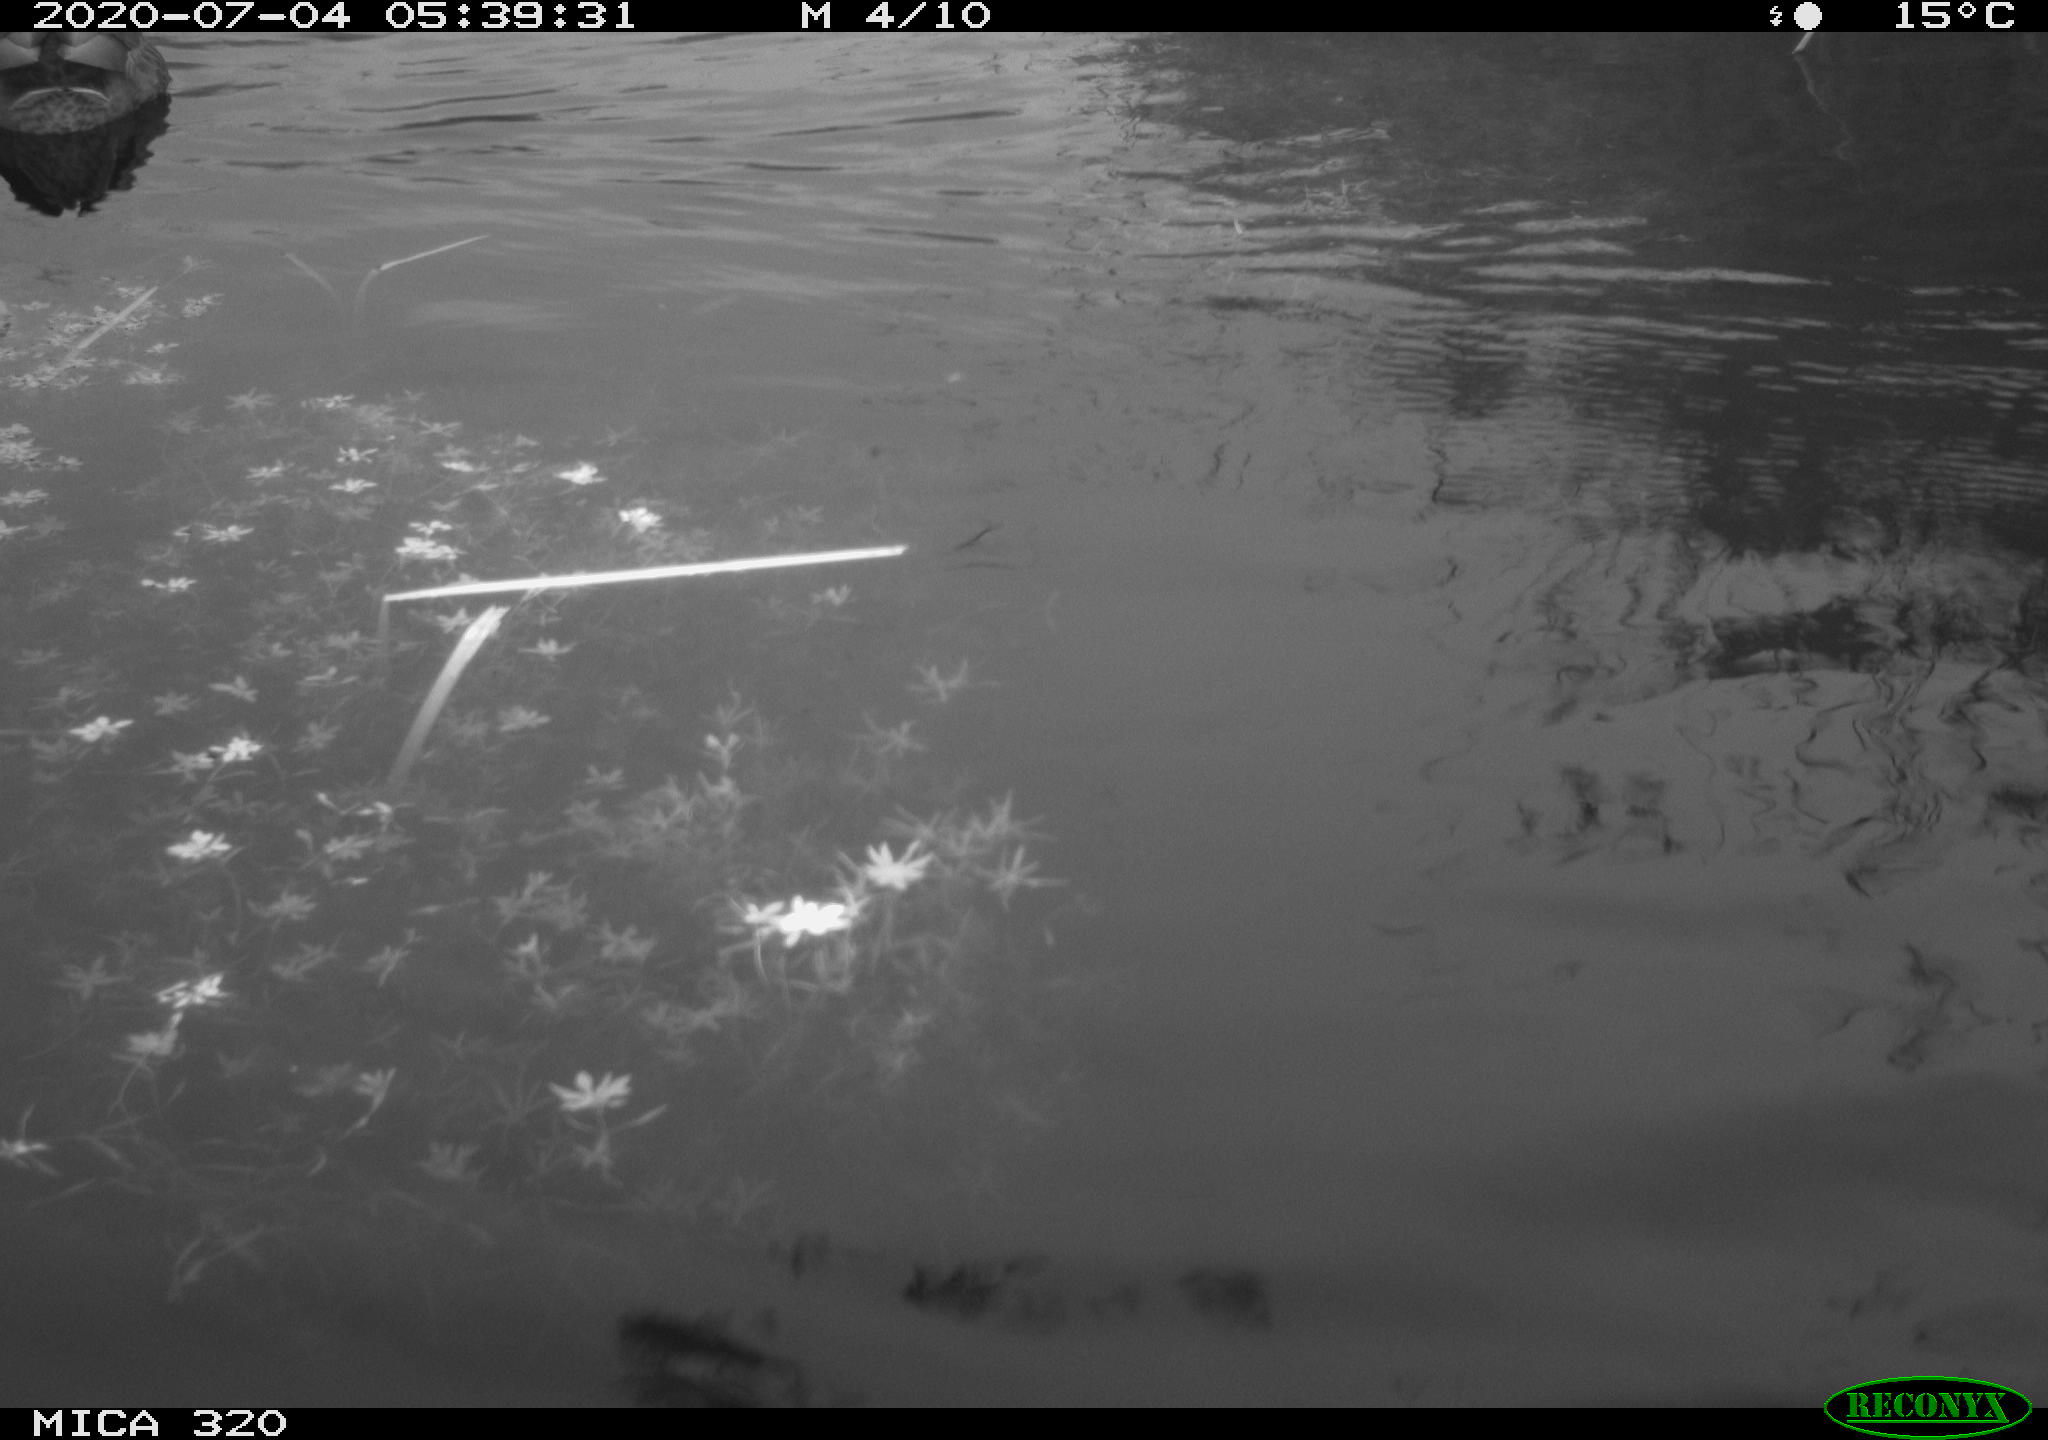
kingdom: Animalia
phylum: Chordata
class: Aves
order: Anseriformes
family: Anatidae
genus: Anas
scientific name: Anas platyrhynchos
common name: Mallard
